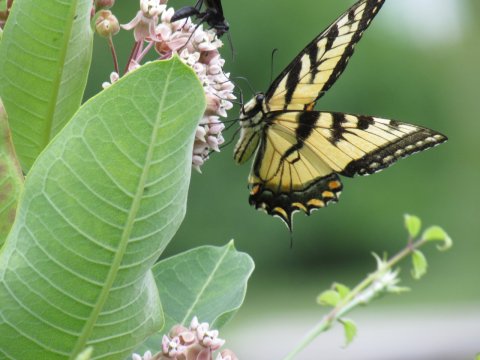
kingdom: Animalia
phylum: Arthropoda
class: Insecta
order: Lepidoptera
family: Papilionidae
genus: Pterourus
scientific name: Pterourus
